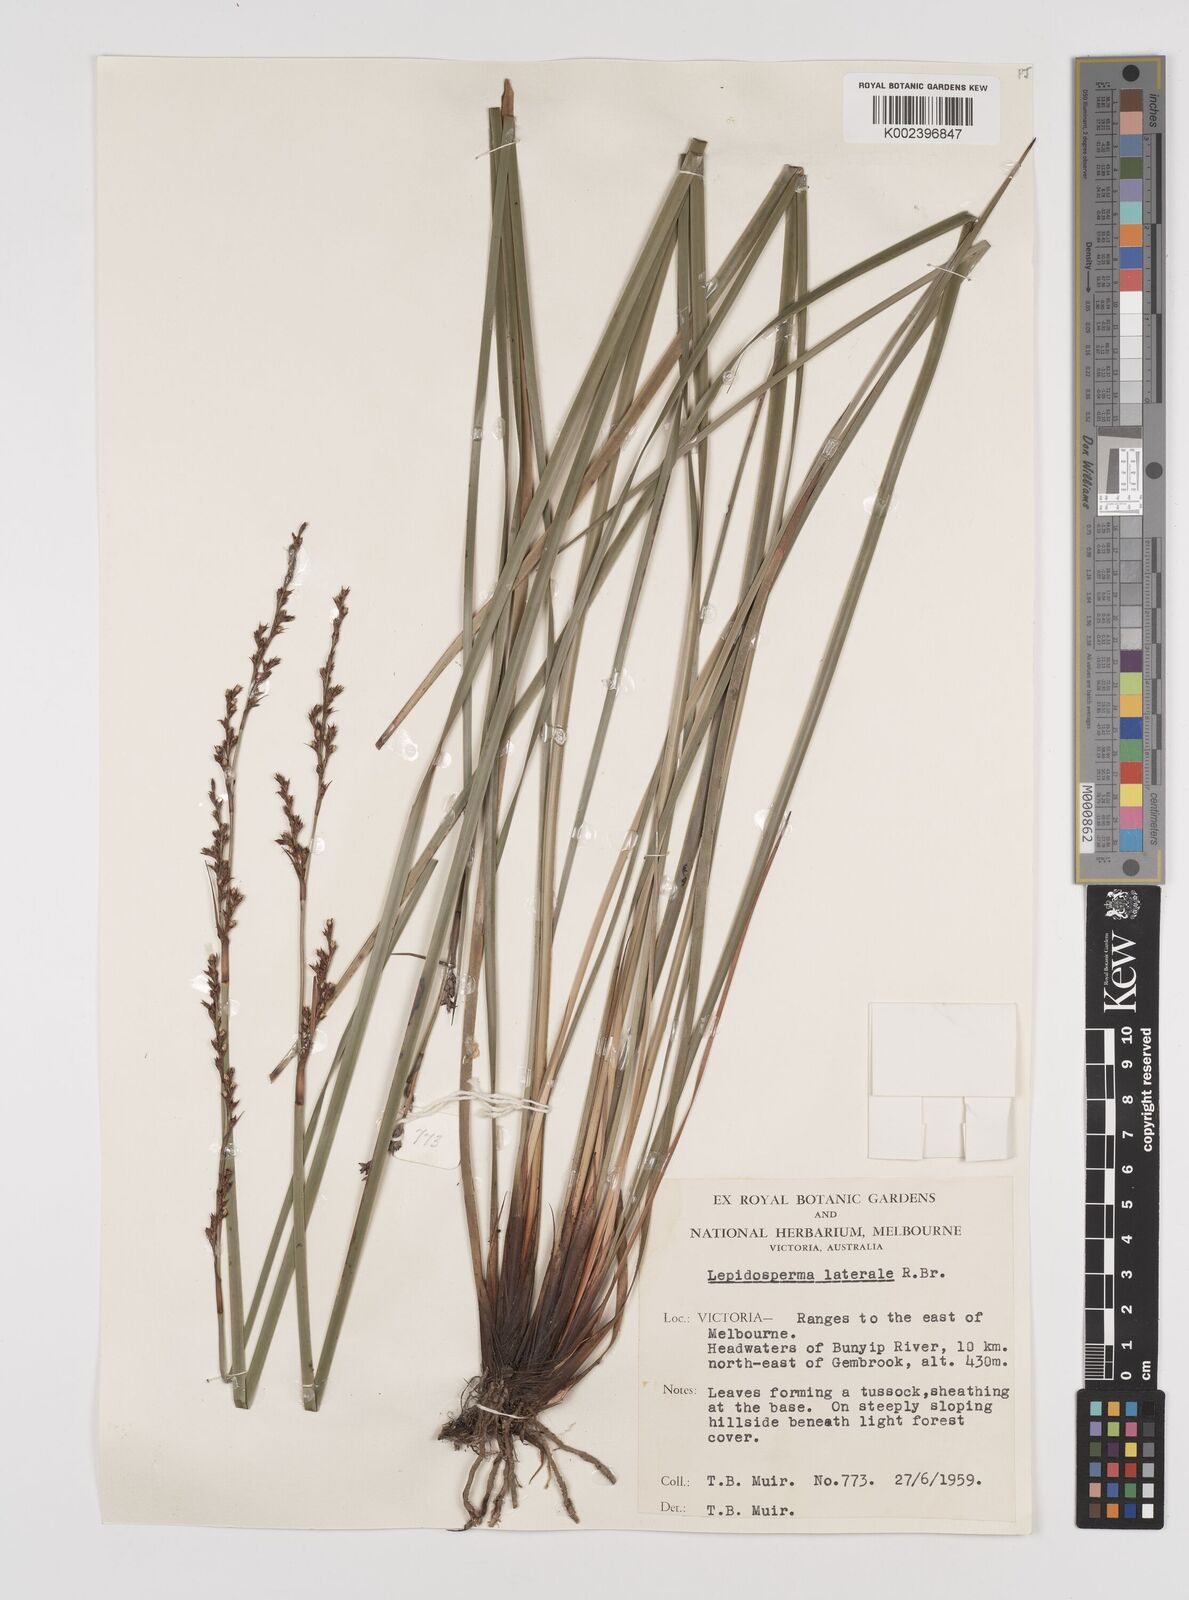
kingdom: Plantae
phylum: Tracheophyta
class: Liliopsida
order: Poales
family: Cyperaceae
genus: Lepidosperma
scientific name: Lepidosperma laterale
